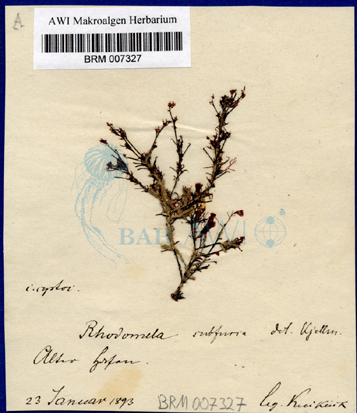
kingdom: Plantae
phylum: Rhodophyta
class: Florideophyceae
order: Ceramiales
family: Rhodomelaceae
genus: Rhodomela
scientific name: Rhodomela confervoides
